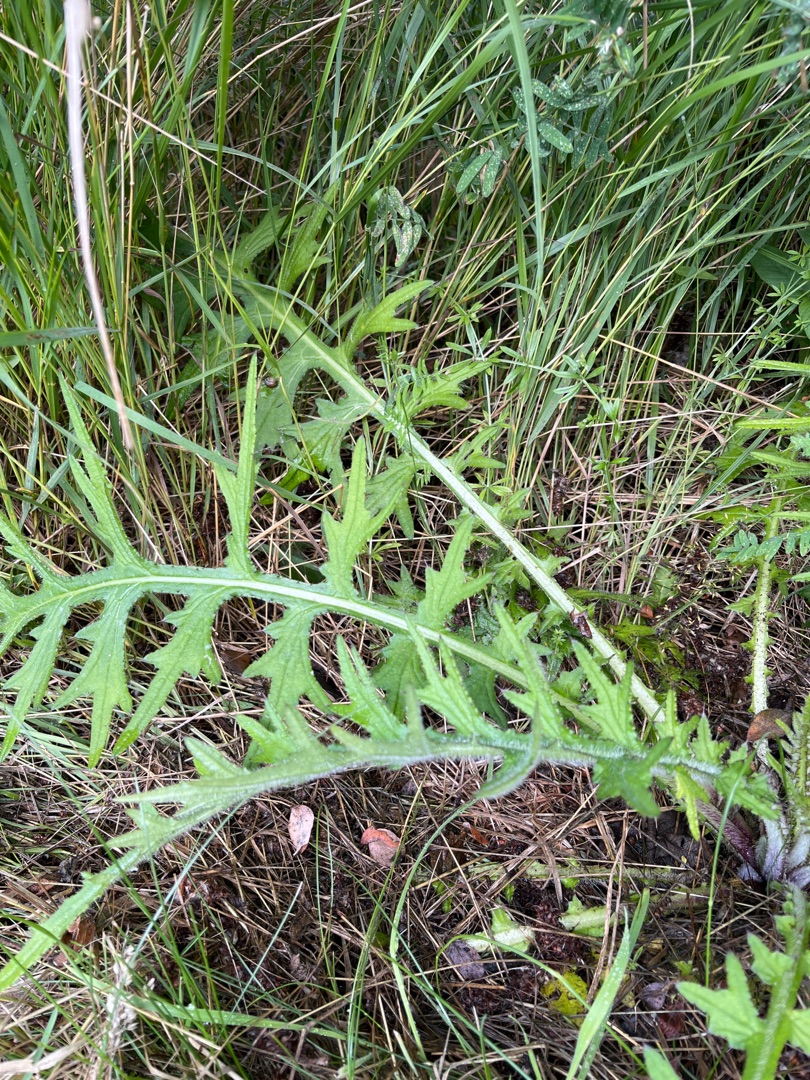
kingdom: Plantae
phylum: Tracheophyta
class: Magnoliopsida
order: Asterales
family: Asteraceae
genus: Cirsium
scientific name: Cirsium palustre
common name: Kær-tidsel
